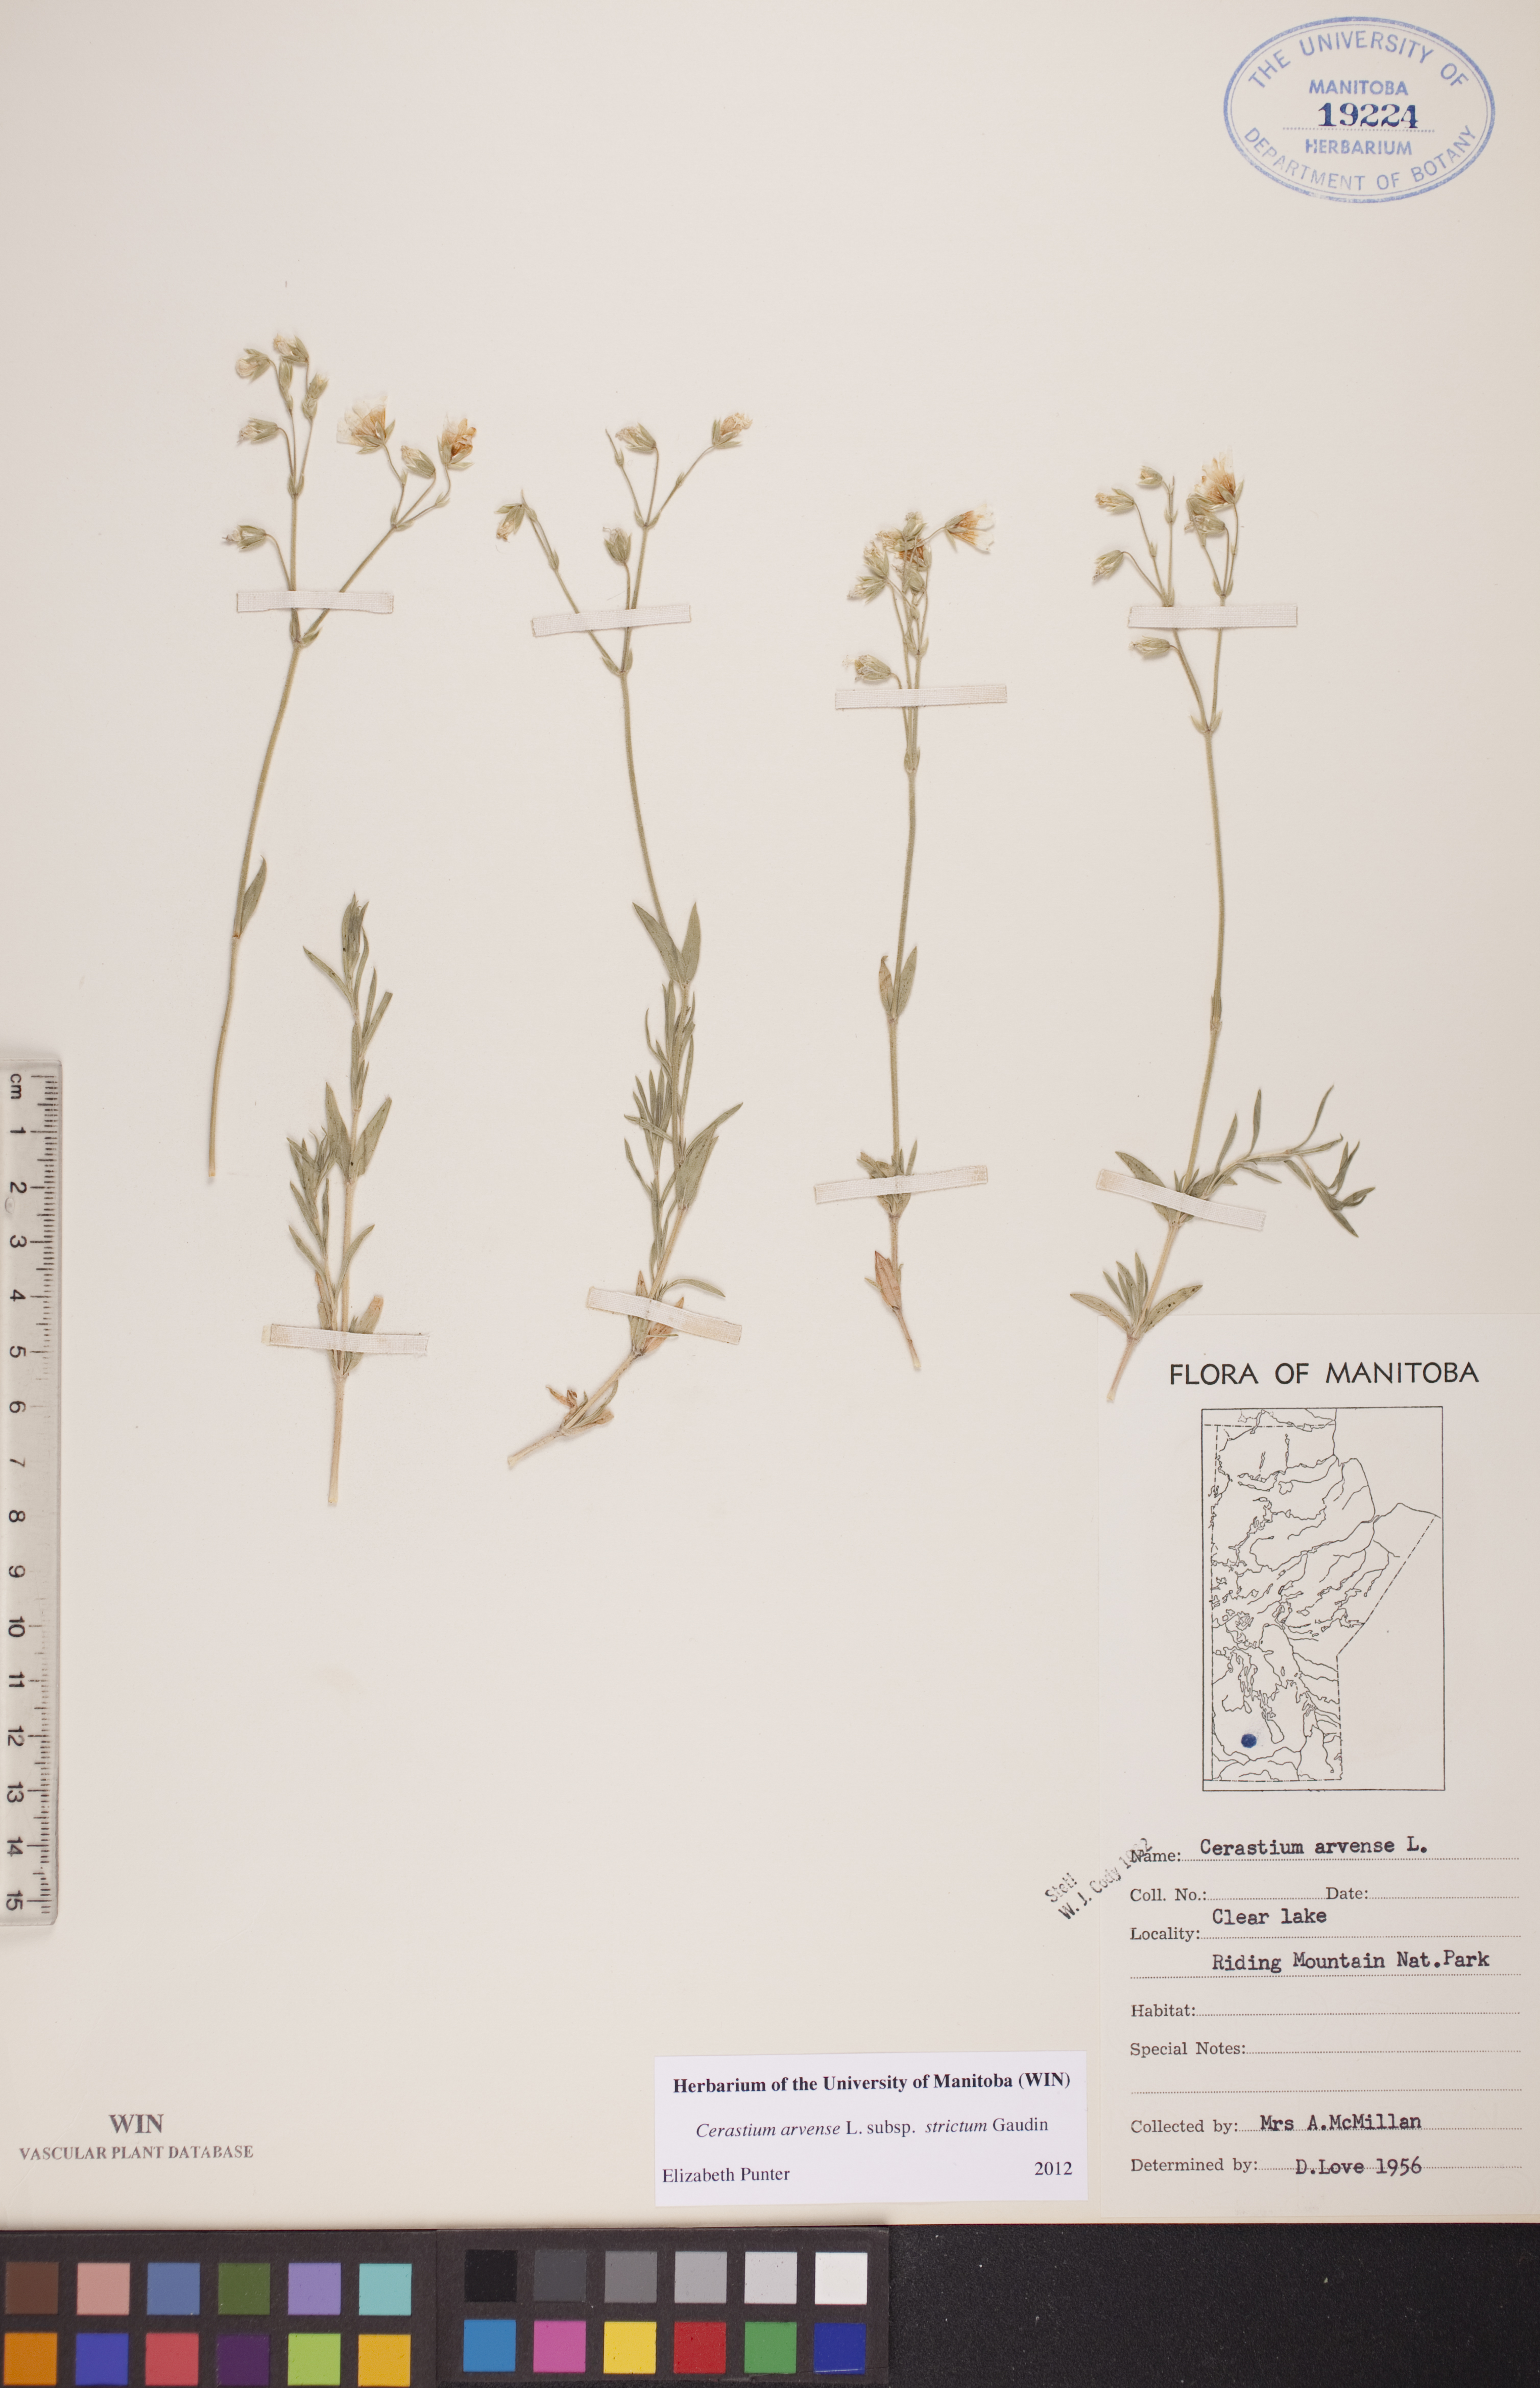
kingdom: Plantae
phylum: Tracheophyta
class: Magnoliopsida
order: Caryophyllales
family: Caryophyllaceae
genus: Cerastium
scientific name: Cerastium elongatum
